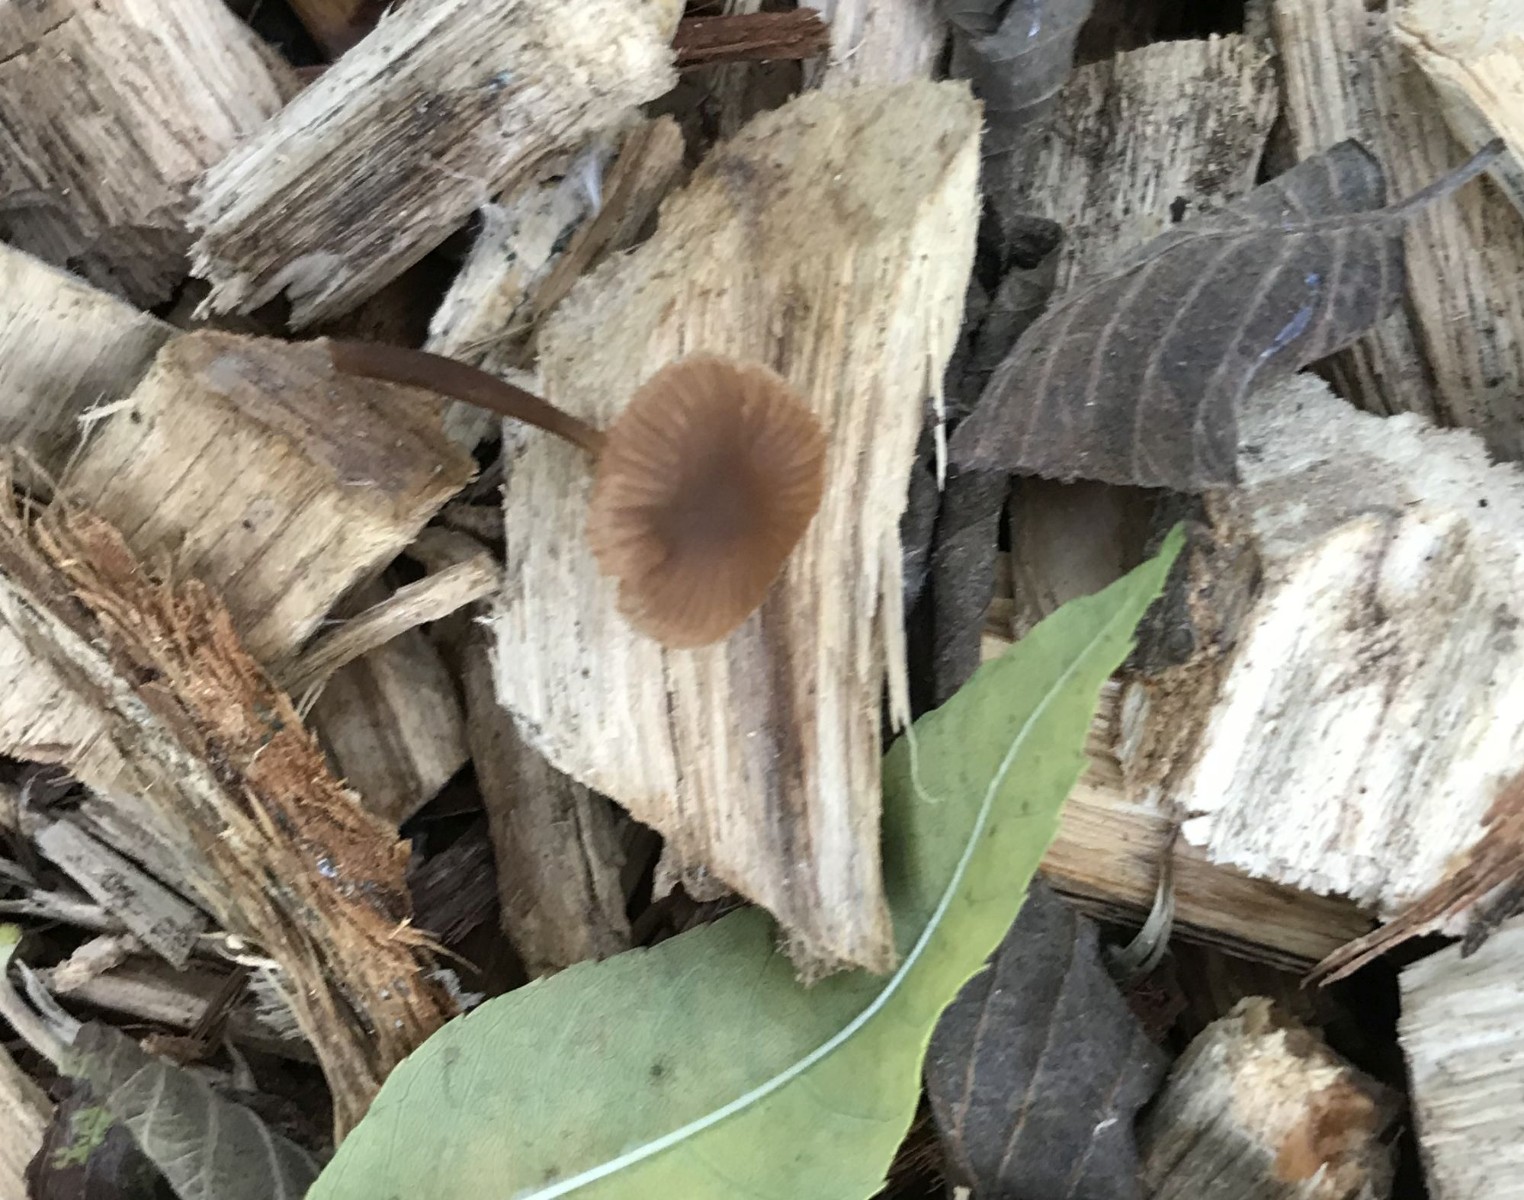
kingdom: Fungi
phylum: Basidiomycota
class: Agaricomycetes
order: Agaricales
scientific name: Agaricales
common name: champignonordenen
